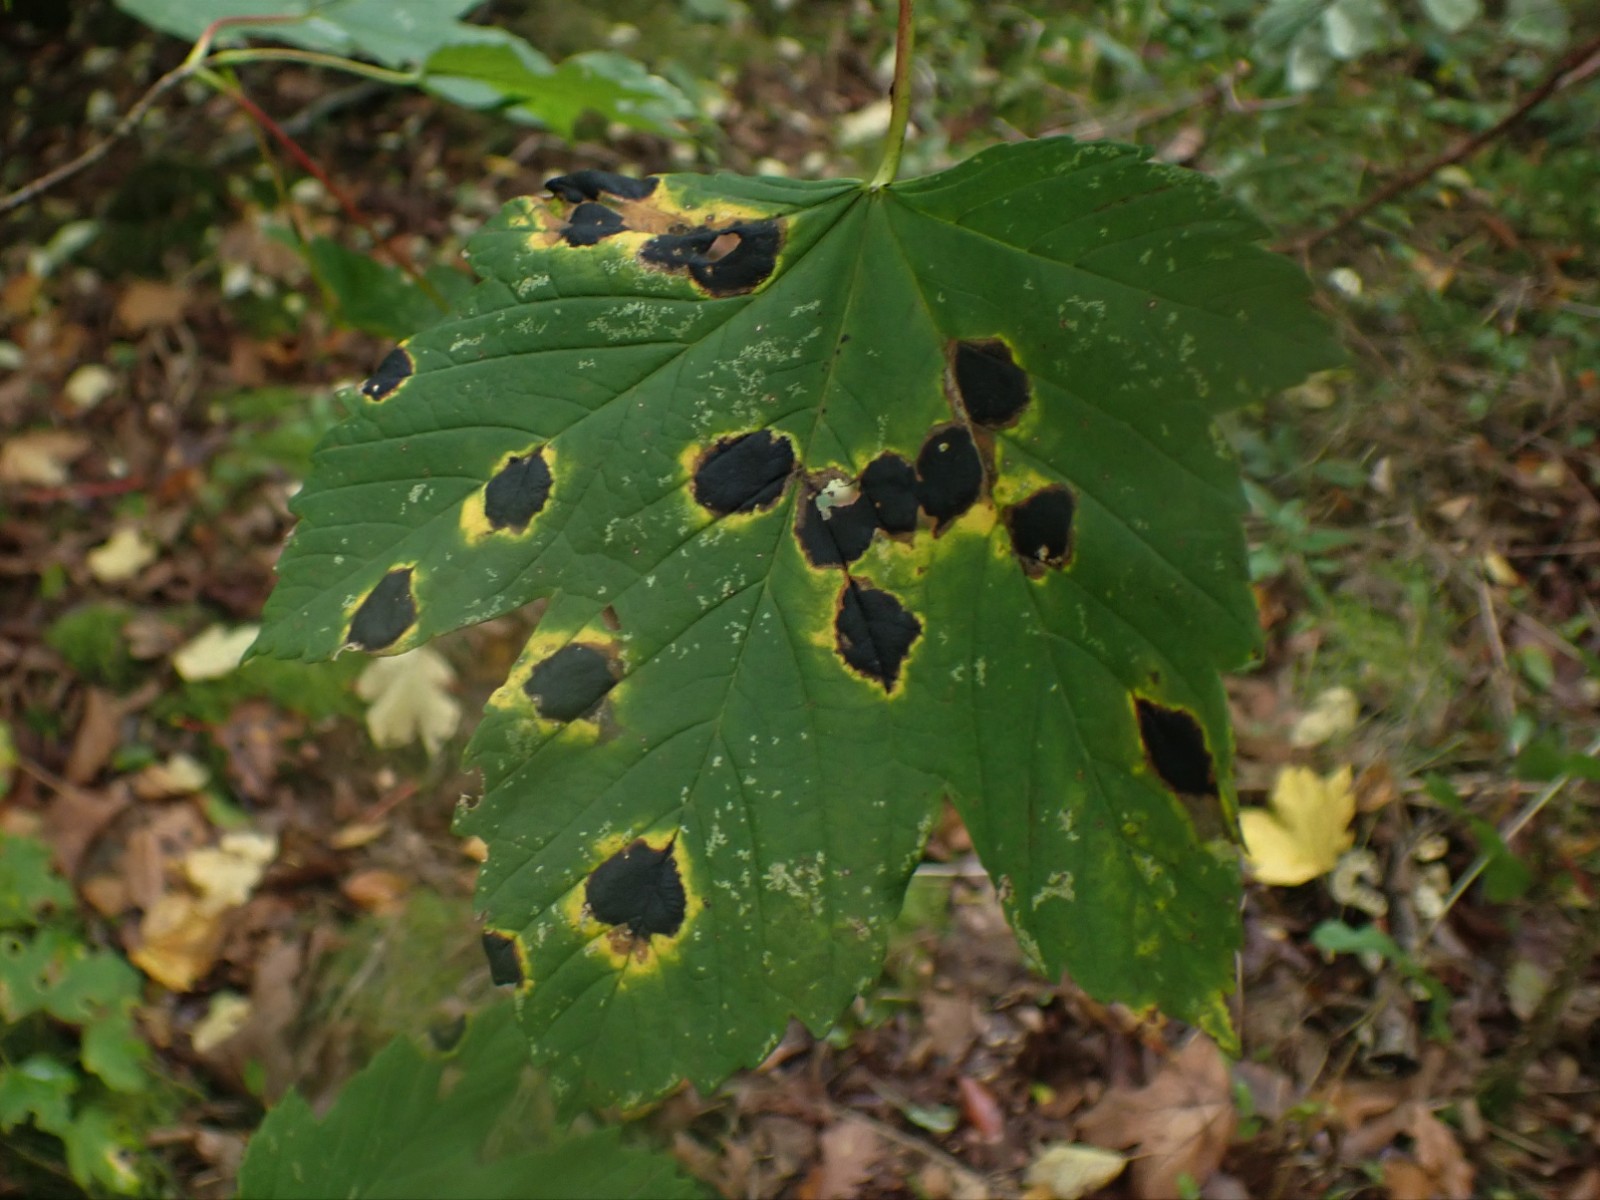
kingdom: Fungi
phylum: Ascomycota
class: Leotiomycetes
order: Rhytismatales
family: Rhytismataceae
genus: Rhytisma
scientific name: Rhytisma acerinum
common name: ahorn-rynkeplet
